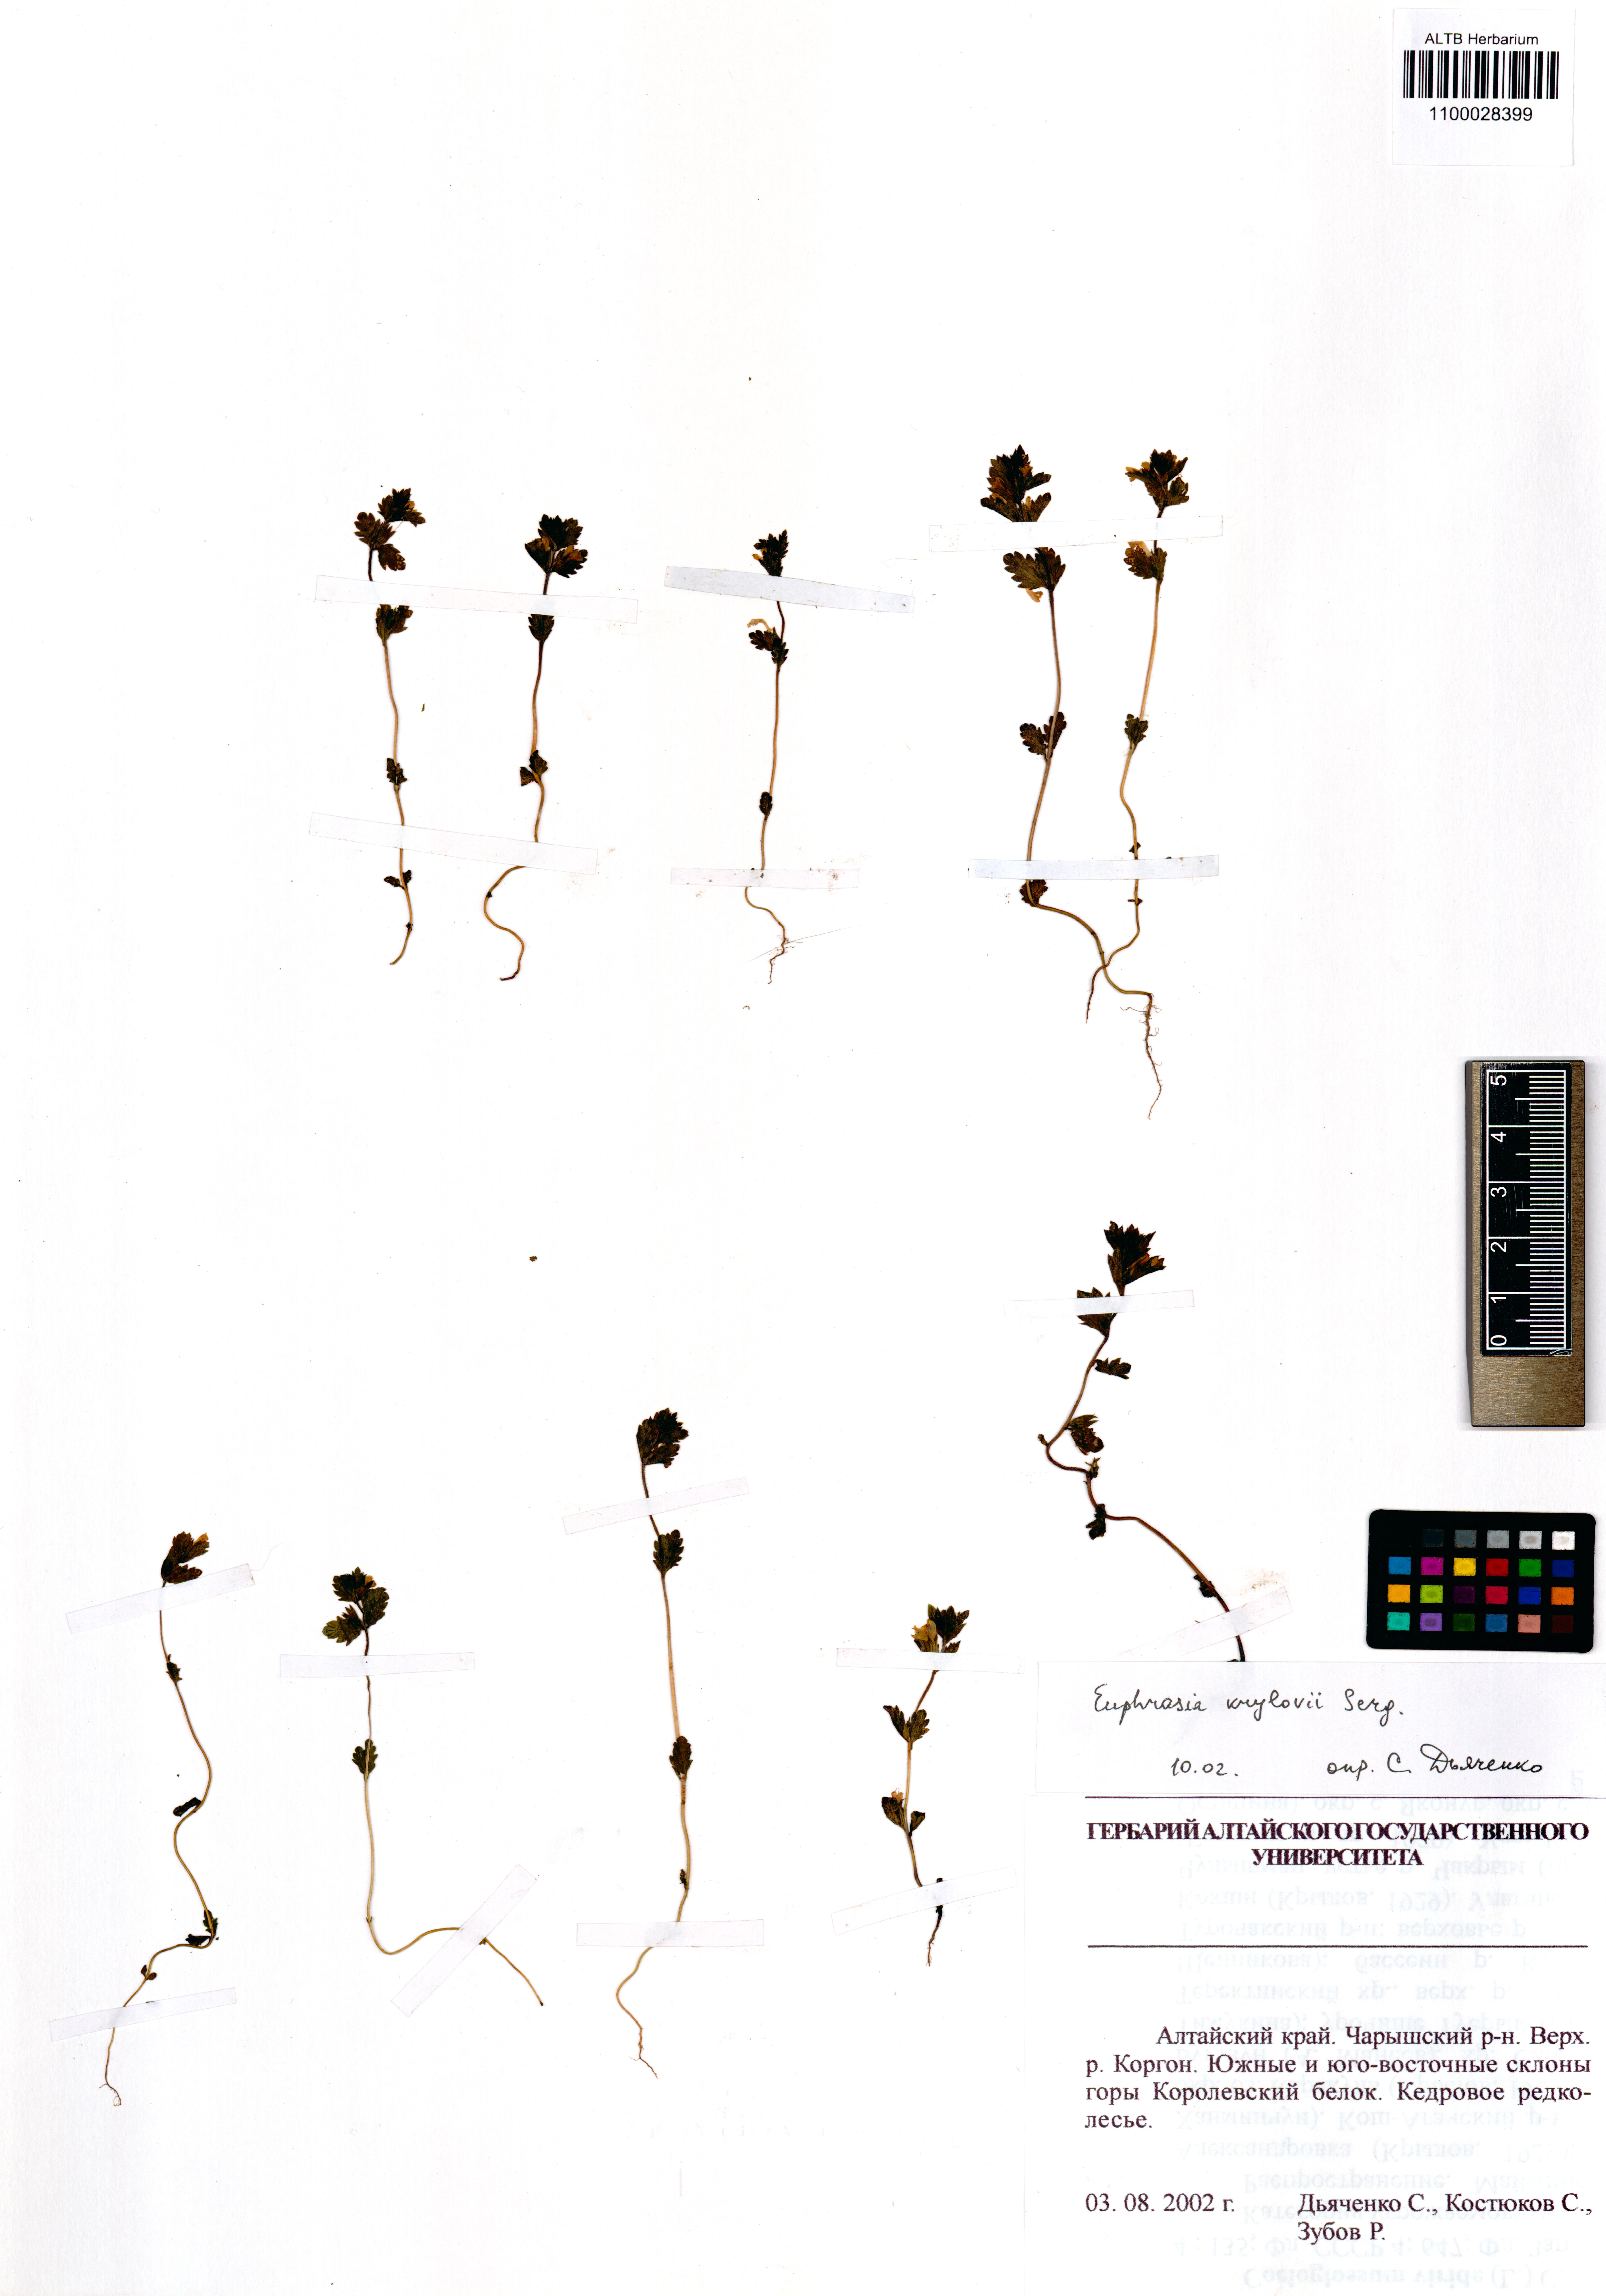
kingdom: Plantae
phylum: Tracheophyta
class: Magnoliopsida
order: Lamiales
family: Orobanchaceae
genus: Euphrasia
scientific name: Euphrasia krylovii
